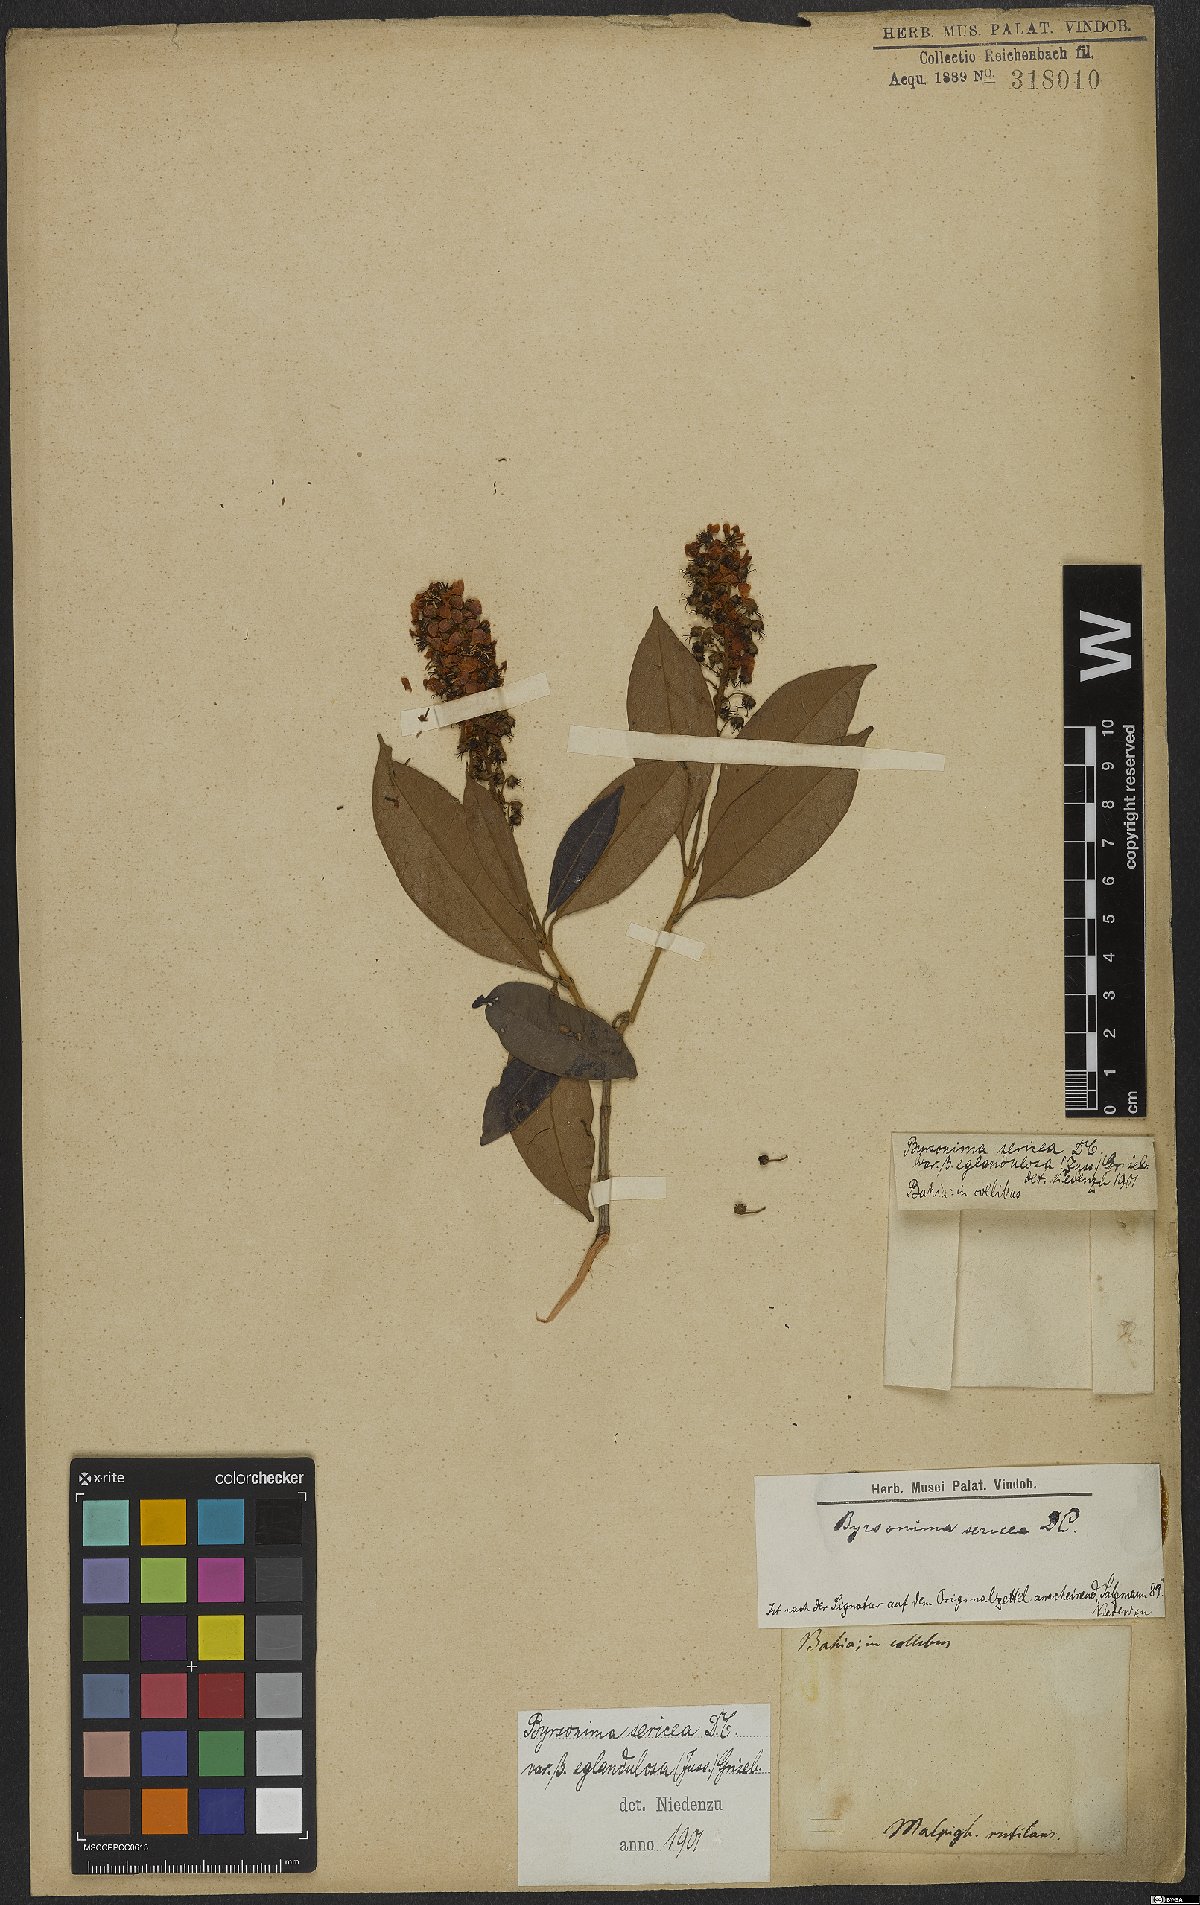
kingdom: Plantae
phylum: Tracheophyta
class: Magnoliopsida
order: Malpighiales
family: Malpighiaceae
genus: Byrsonima
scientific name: Byrsonima sericea
